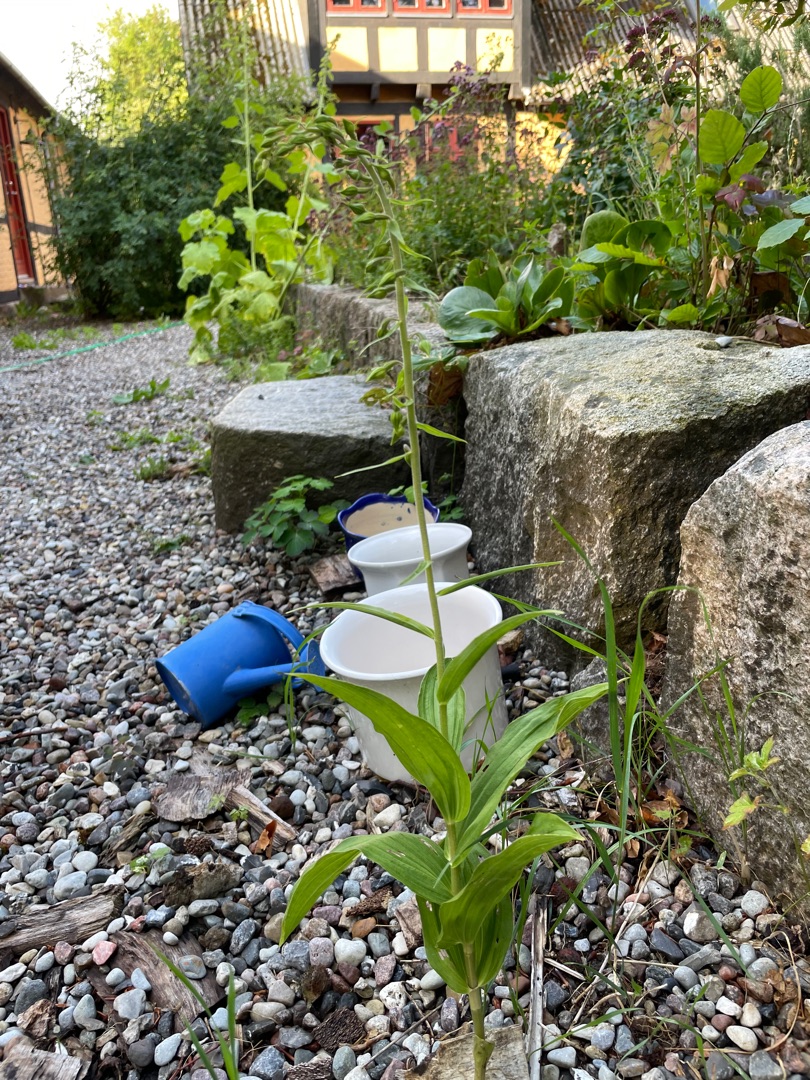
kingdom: Plantae
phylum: Tracheophyta
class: Liliopsida
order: Asparagales
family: Orchidaceae
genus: Epipactis
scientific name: Epipactis helleborine
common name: Skov-hullæbe
